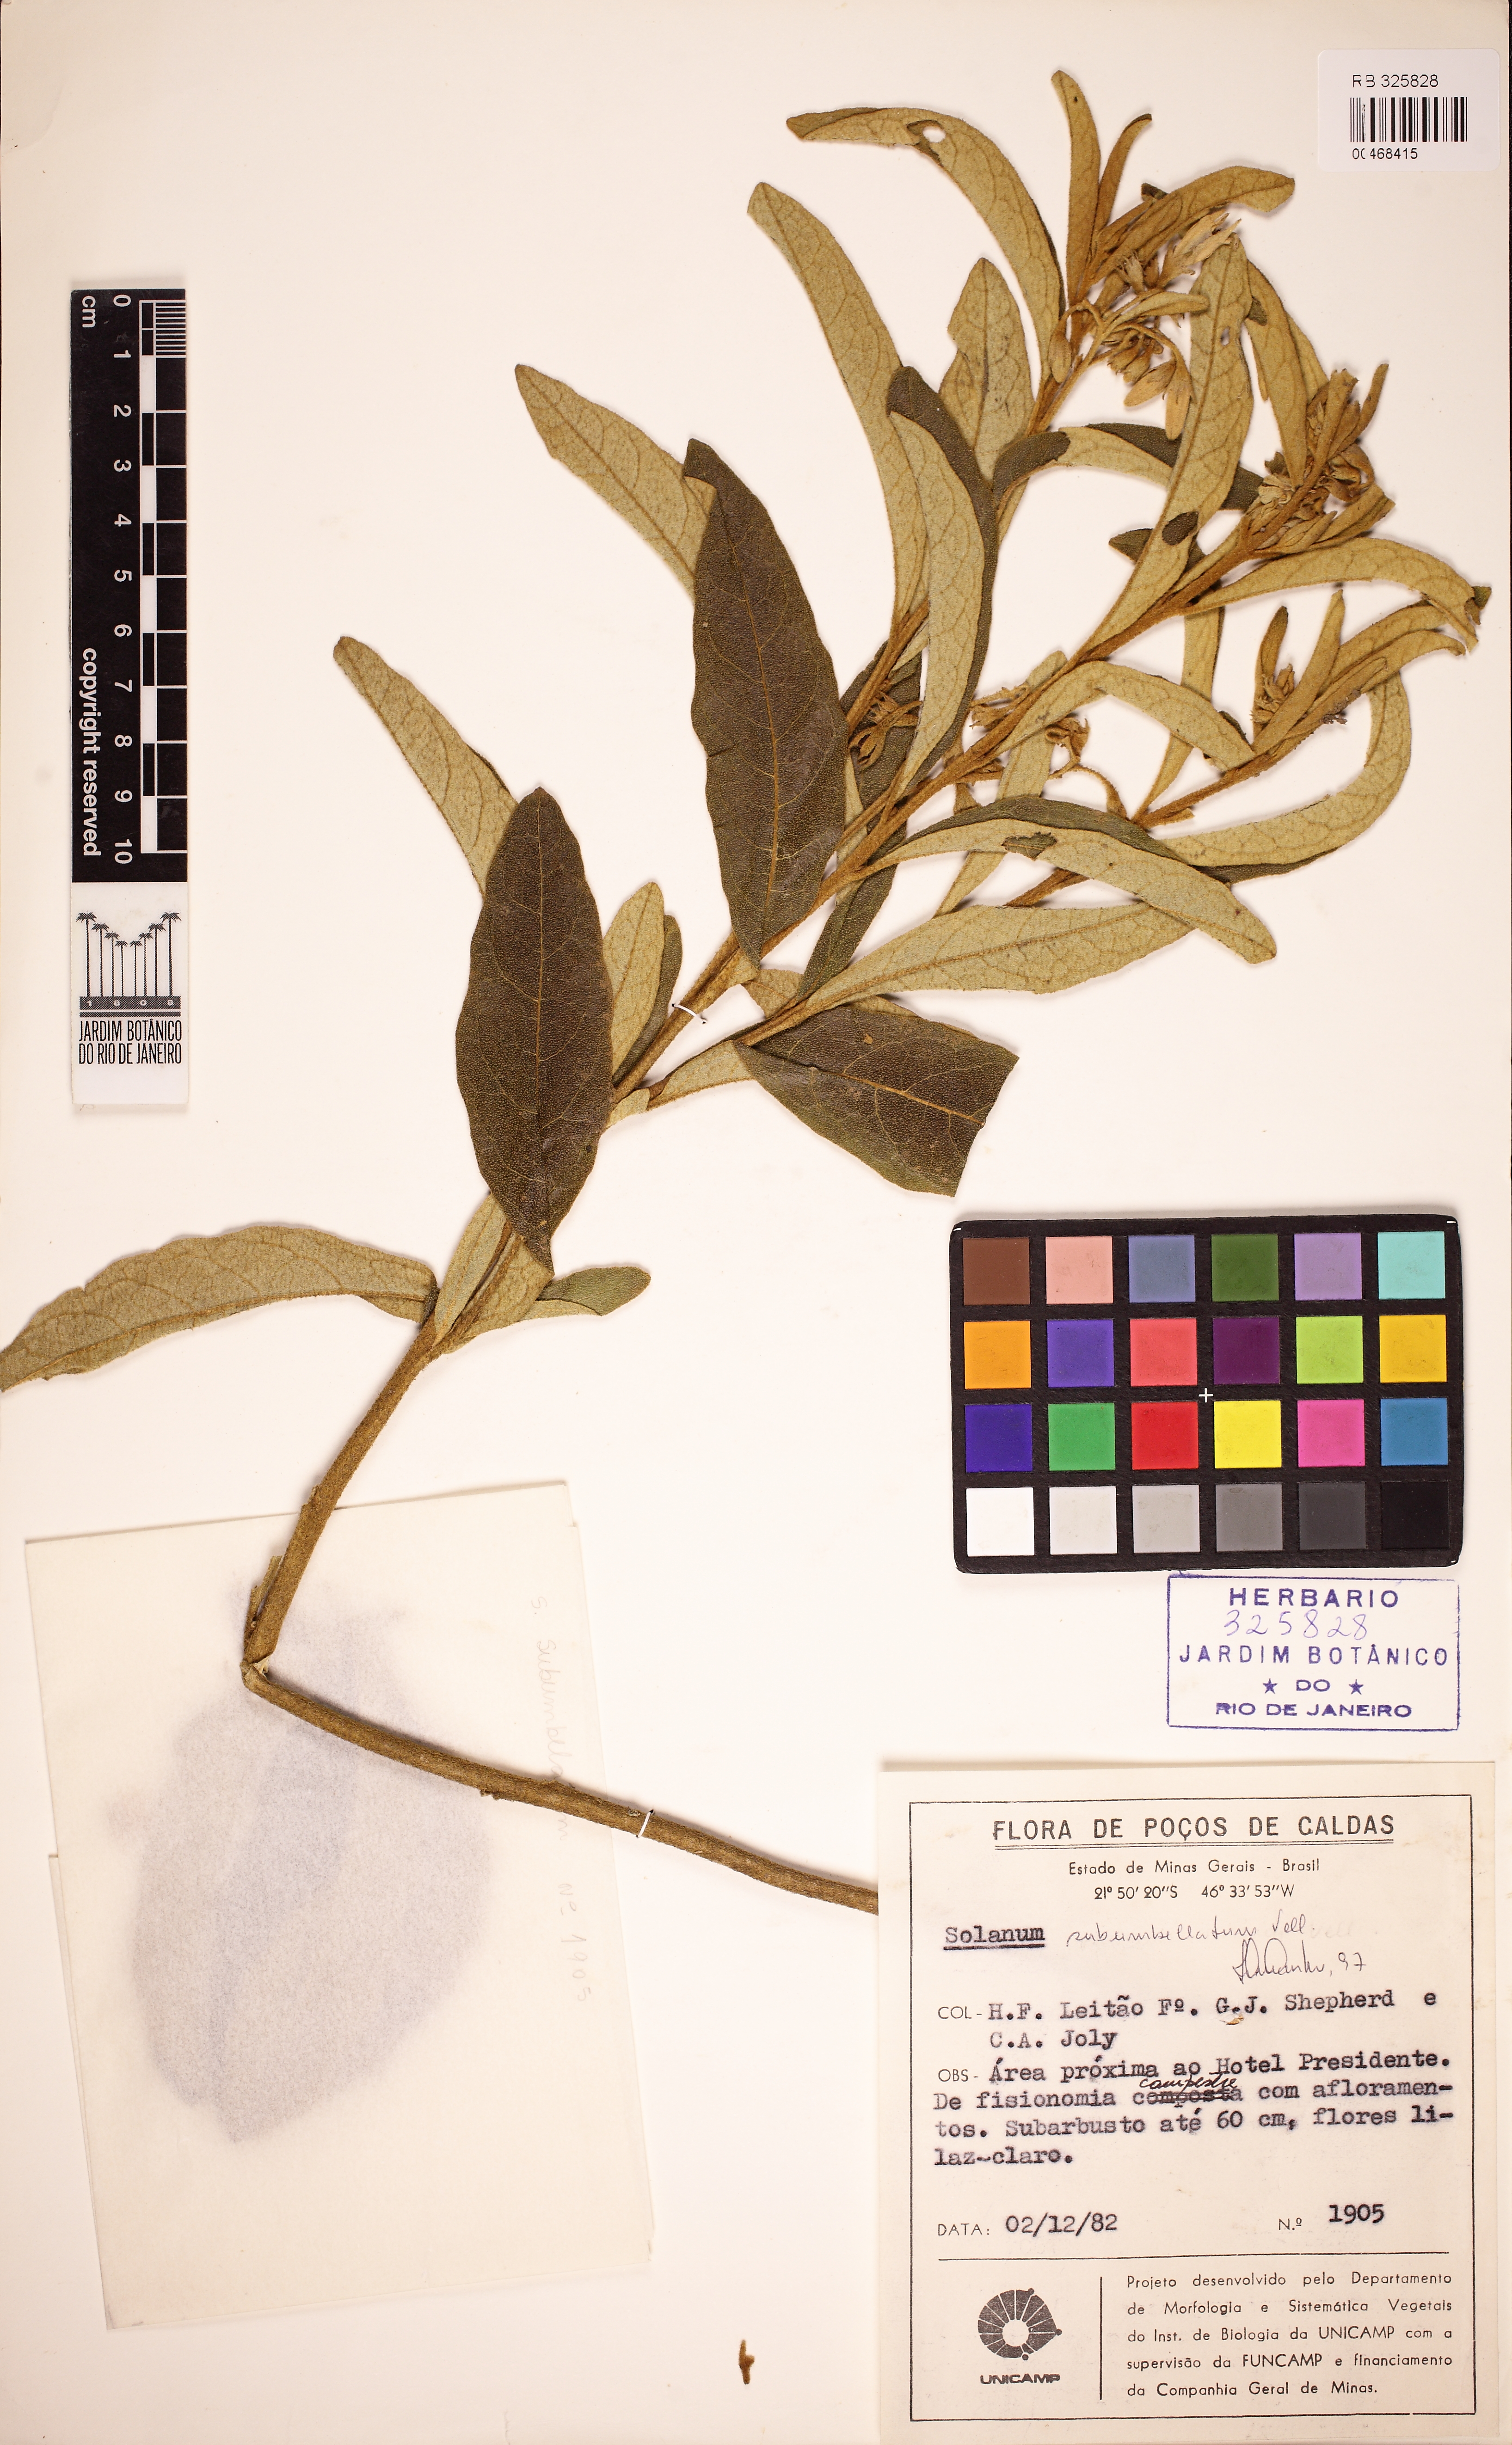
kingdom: Plantae
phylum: Tracheophyta
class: Magnoliopsida
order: Solanales
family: Solanaceae
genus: Solanum
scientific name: Solanum subumbellatum
